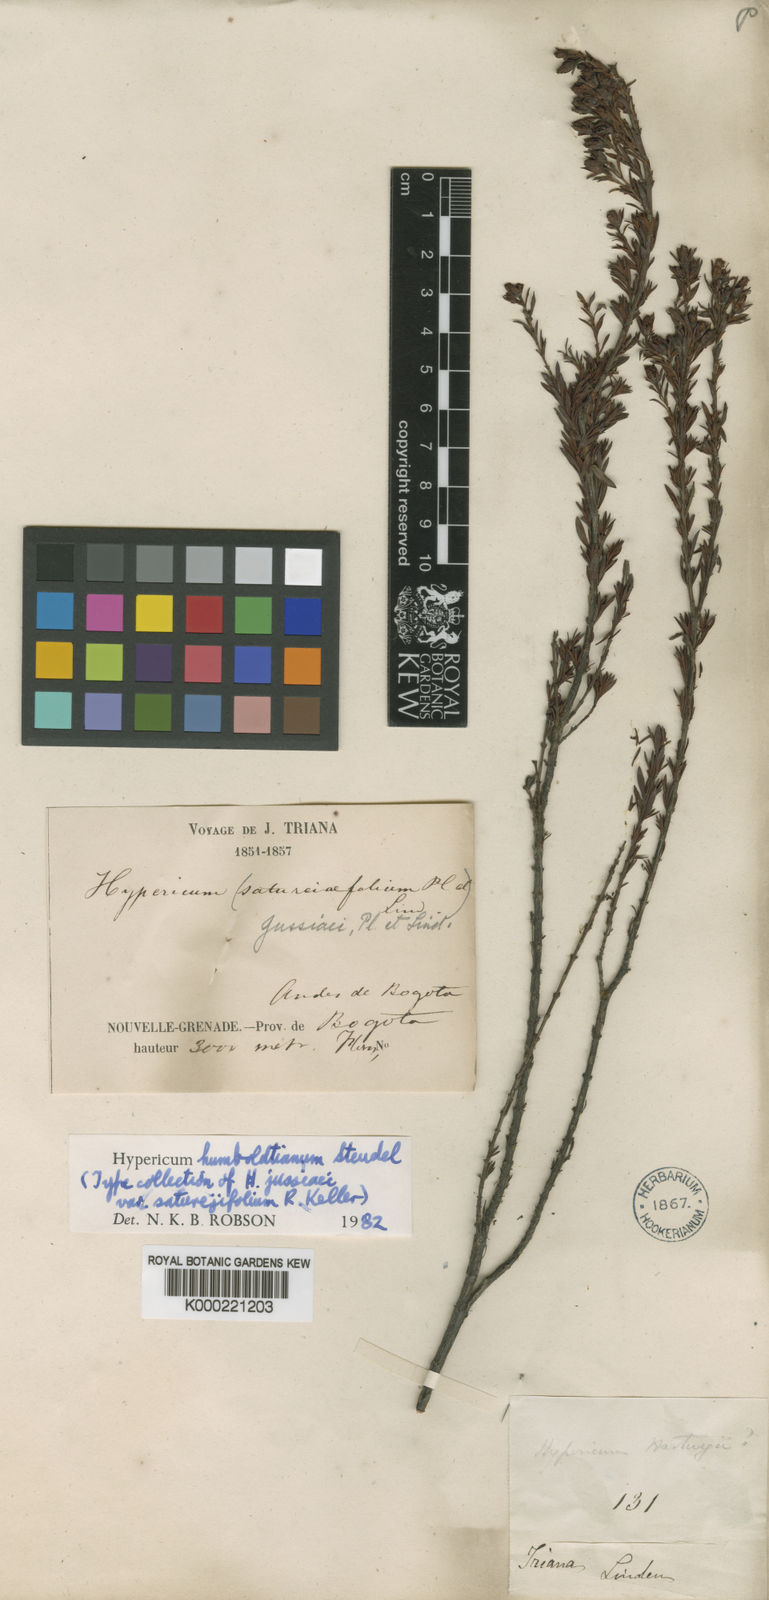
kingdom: Plantae
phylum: Tracheophyta
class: Magnoliopsida
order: Malpighiales
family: Hypericaceae
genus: Hypericum
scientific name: Hypericum humboldtianum
